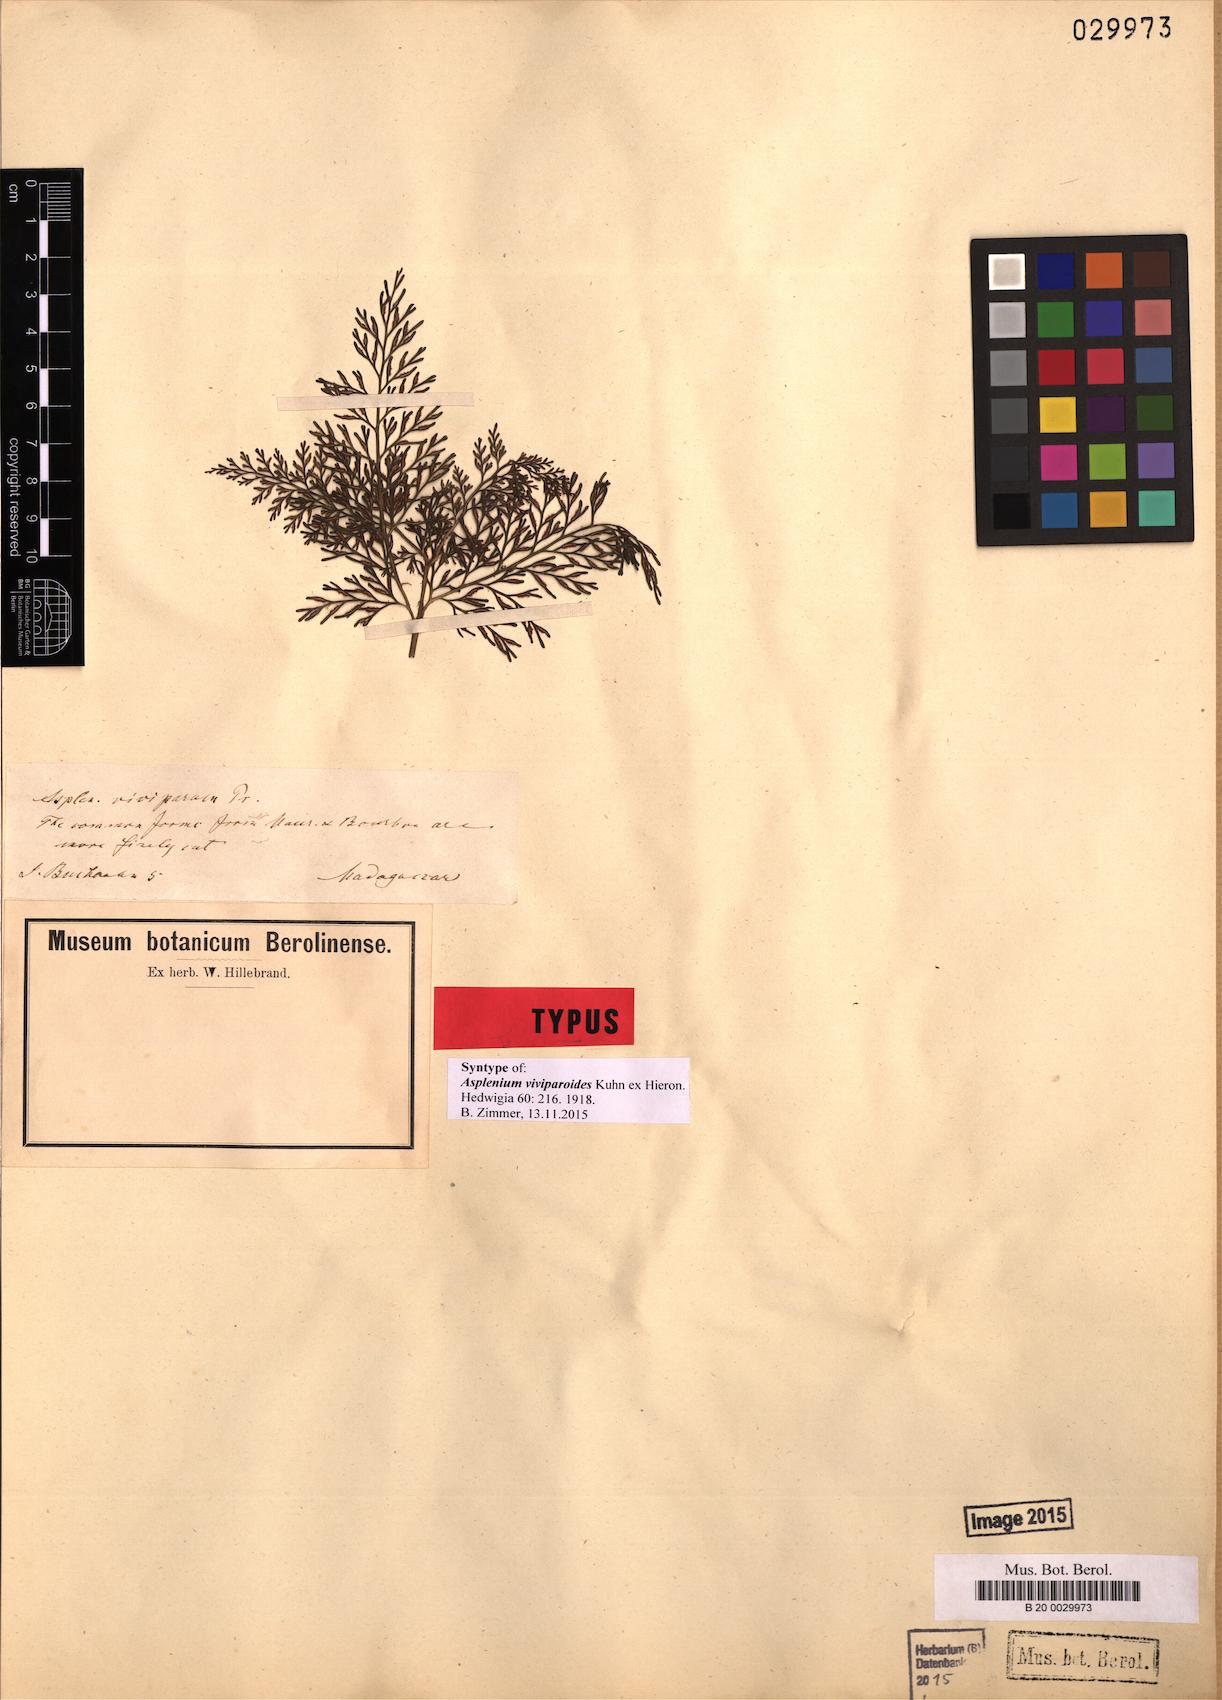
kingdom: Plantae
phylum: Tracheophyta
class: Polypodiopsida
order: Polypodiales
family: Aspleniaceae
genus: Asplenium
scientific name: Asplenium viviparioides
